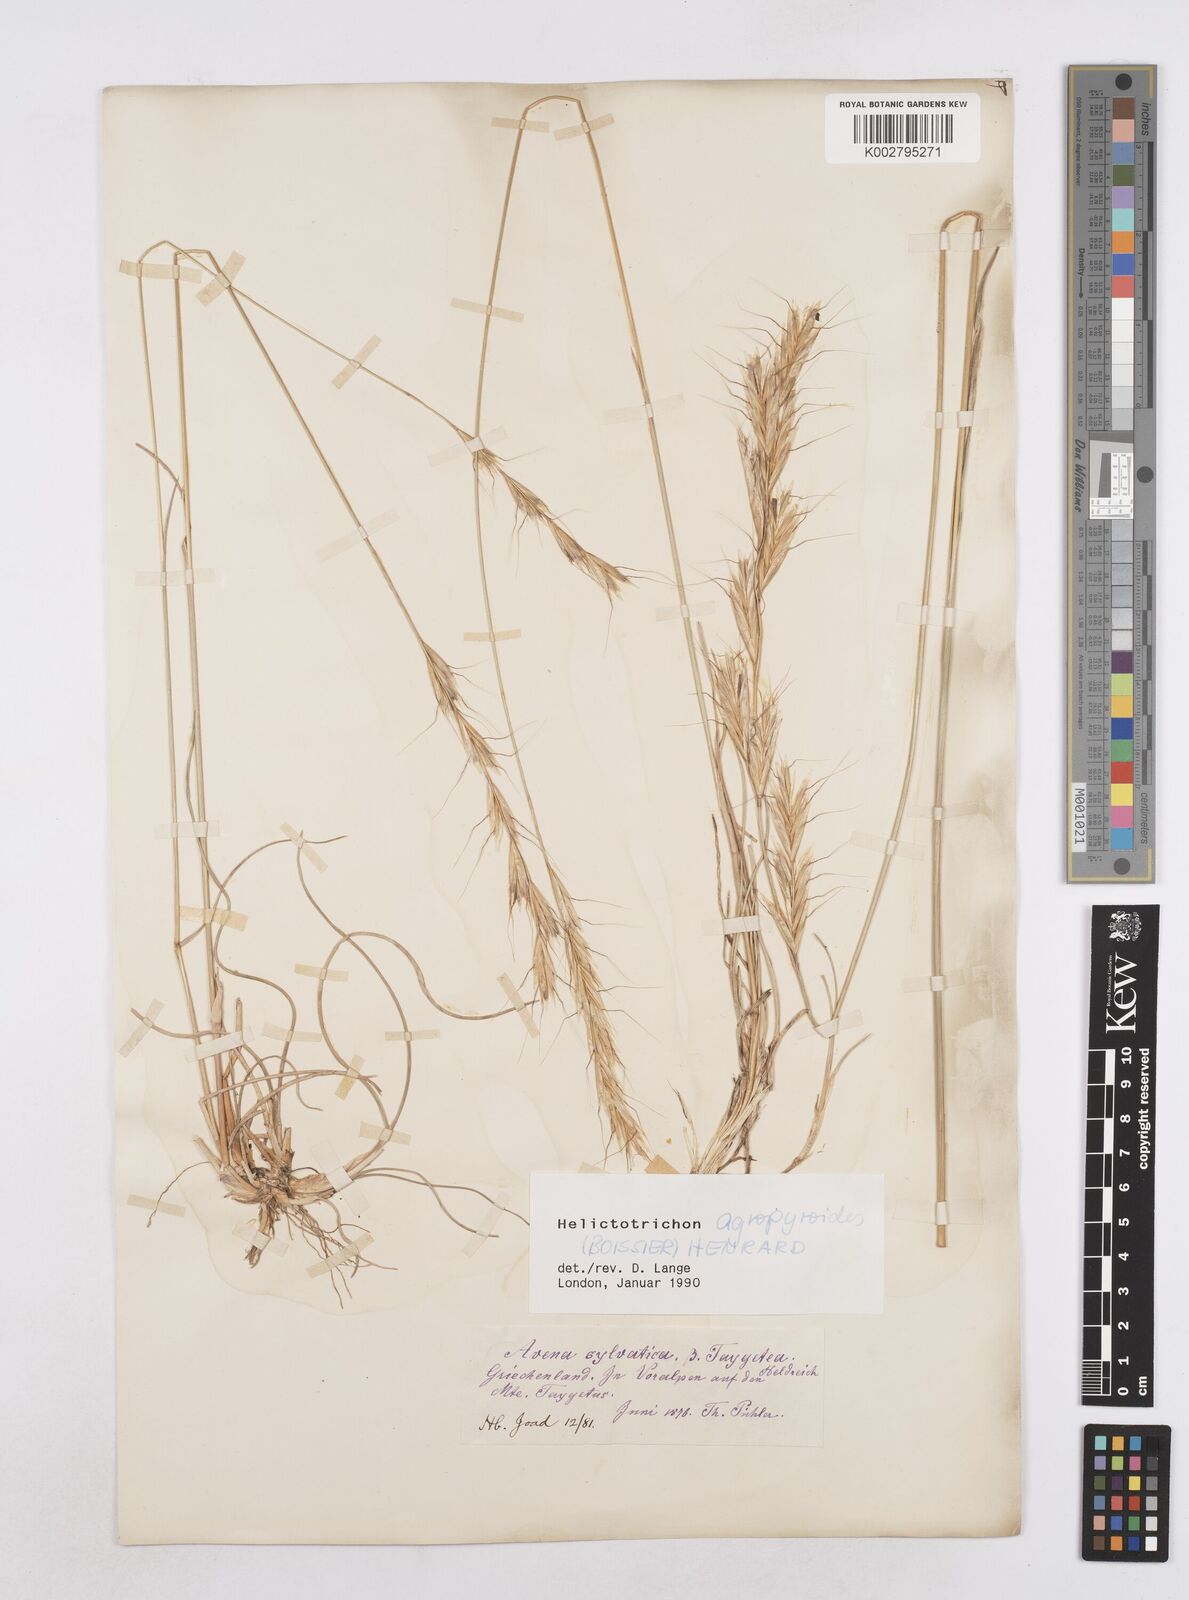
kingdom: Plantae
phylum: Tracheophyta
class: Liliopsida
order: Poales
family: Poaceae
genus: Helictochloa
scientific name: Helictochloa agropyroides
